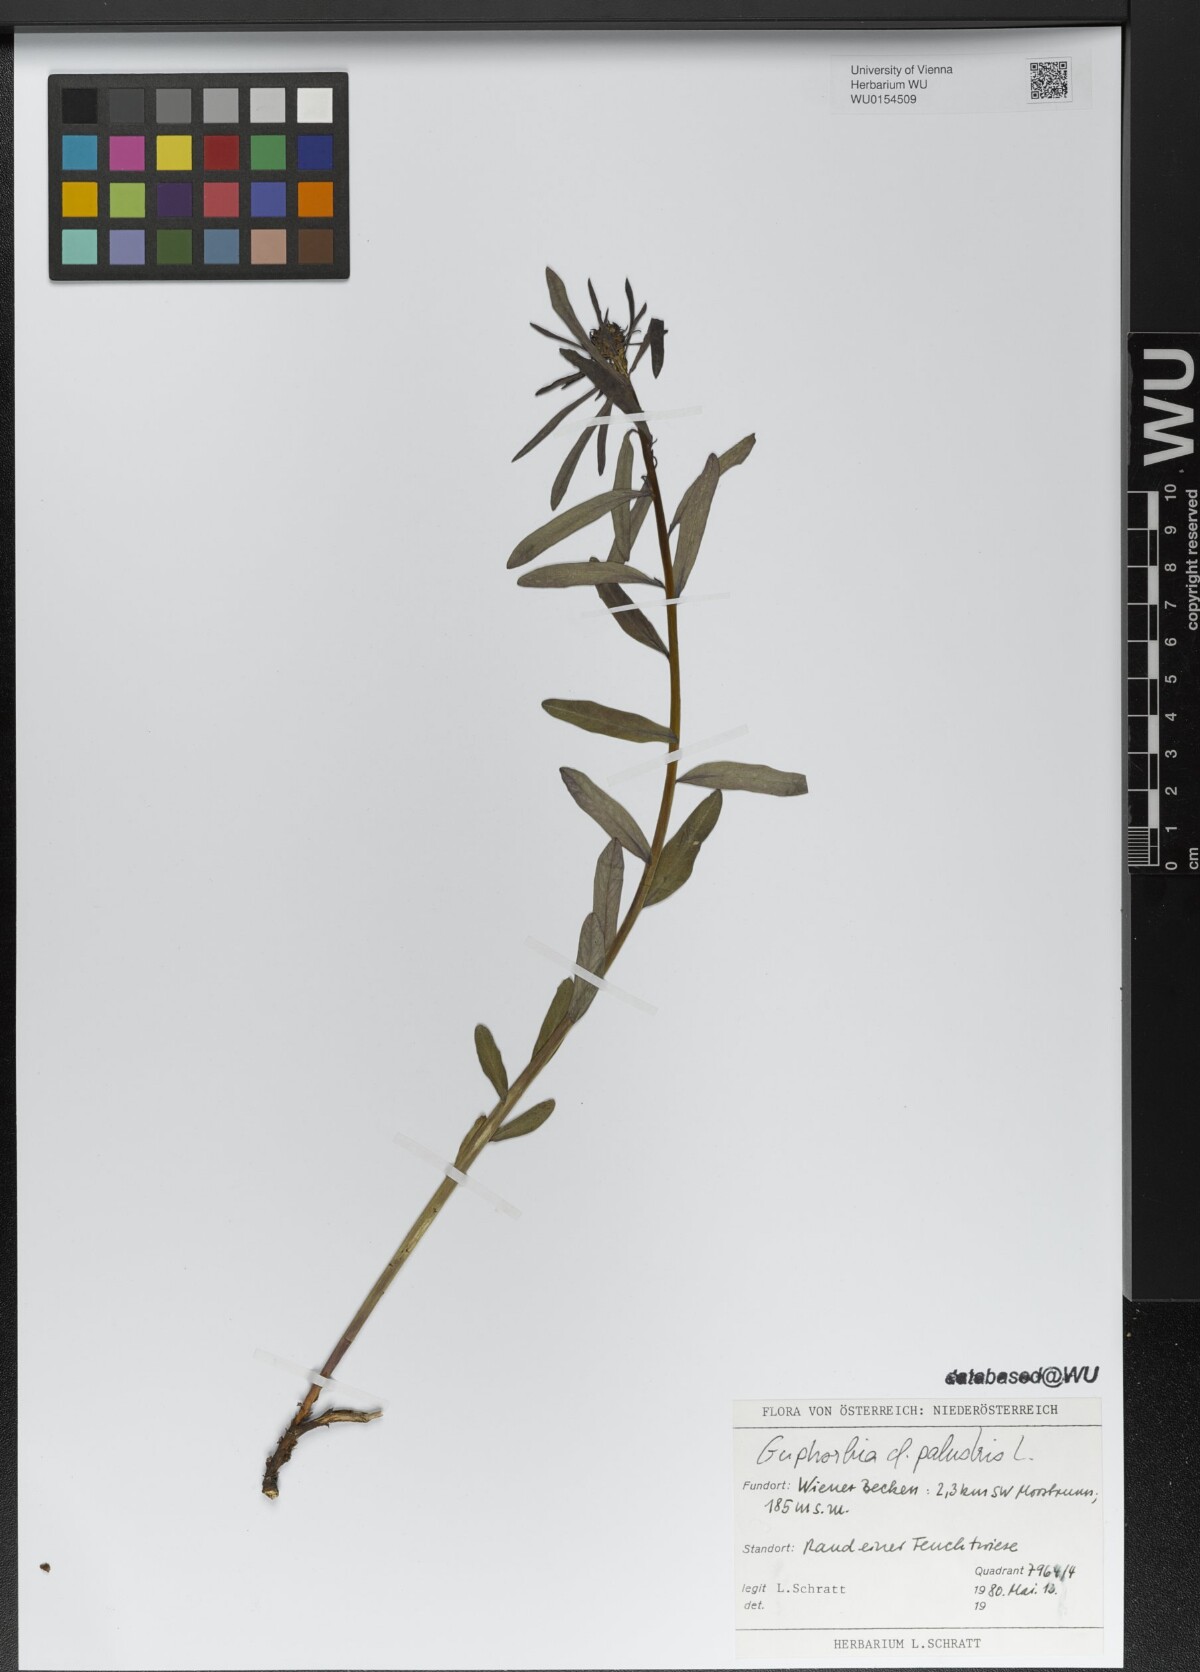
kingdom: Plantae
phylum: Tracheophyta
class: Magnoliopsida
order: Malpighiales
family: Euphorbiaceae
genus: Euphorbia
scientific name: Euphorbia palustris
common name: Marsh spurge
